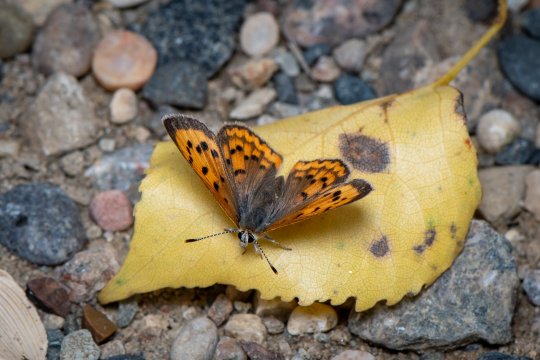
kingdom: Animalia
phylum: Arthropoda
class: Insecta
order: Lepidoptera
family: Sesiidae
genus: Sesia
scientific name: Sesia Lycaena helloides
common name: Purplish Copper
